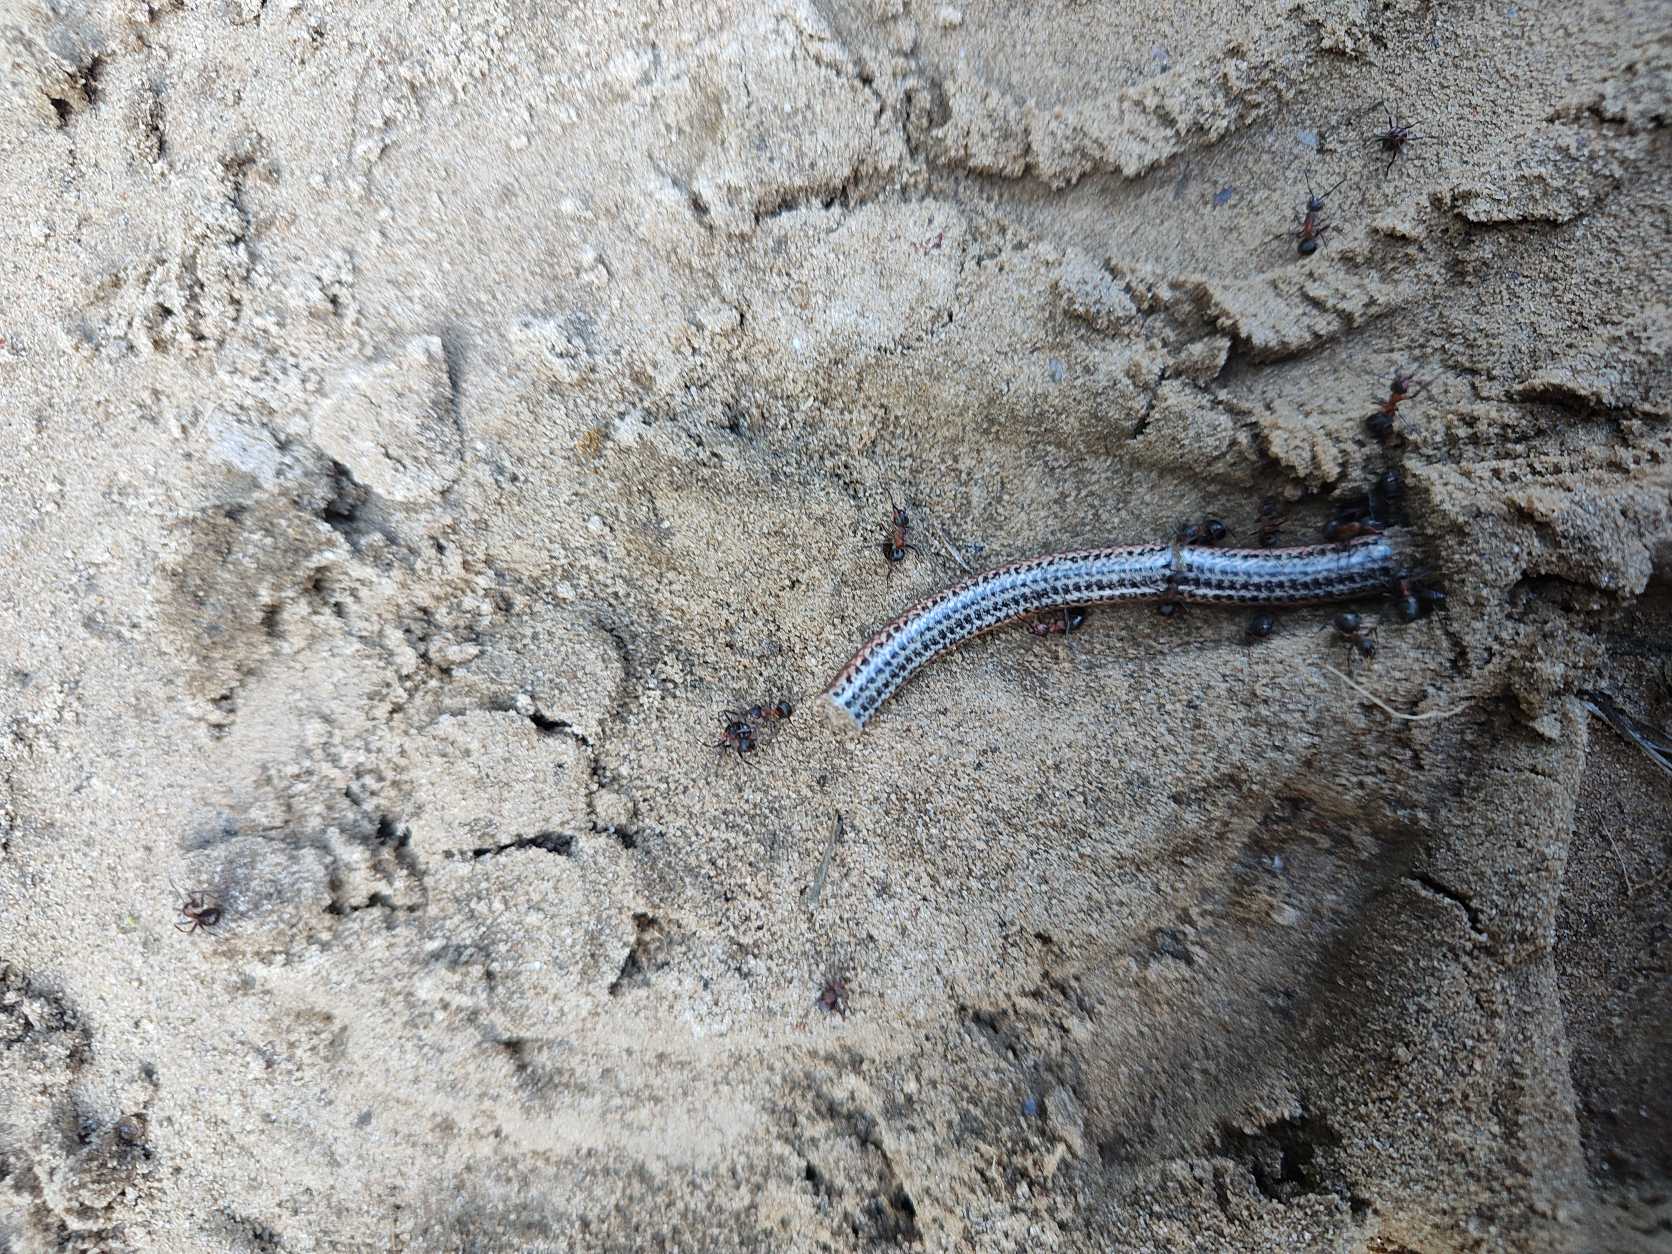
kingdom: Animalia
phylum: Chordata
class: Squamata
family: Anguidae
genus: Anguis
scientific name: Anguis fragilis
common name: Stålorm
